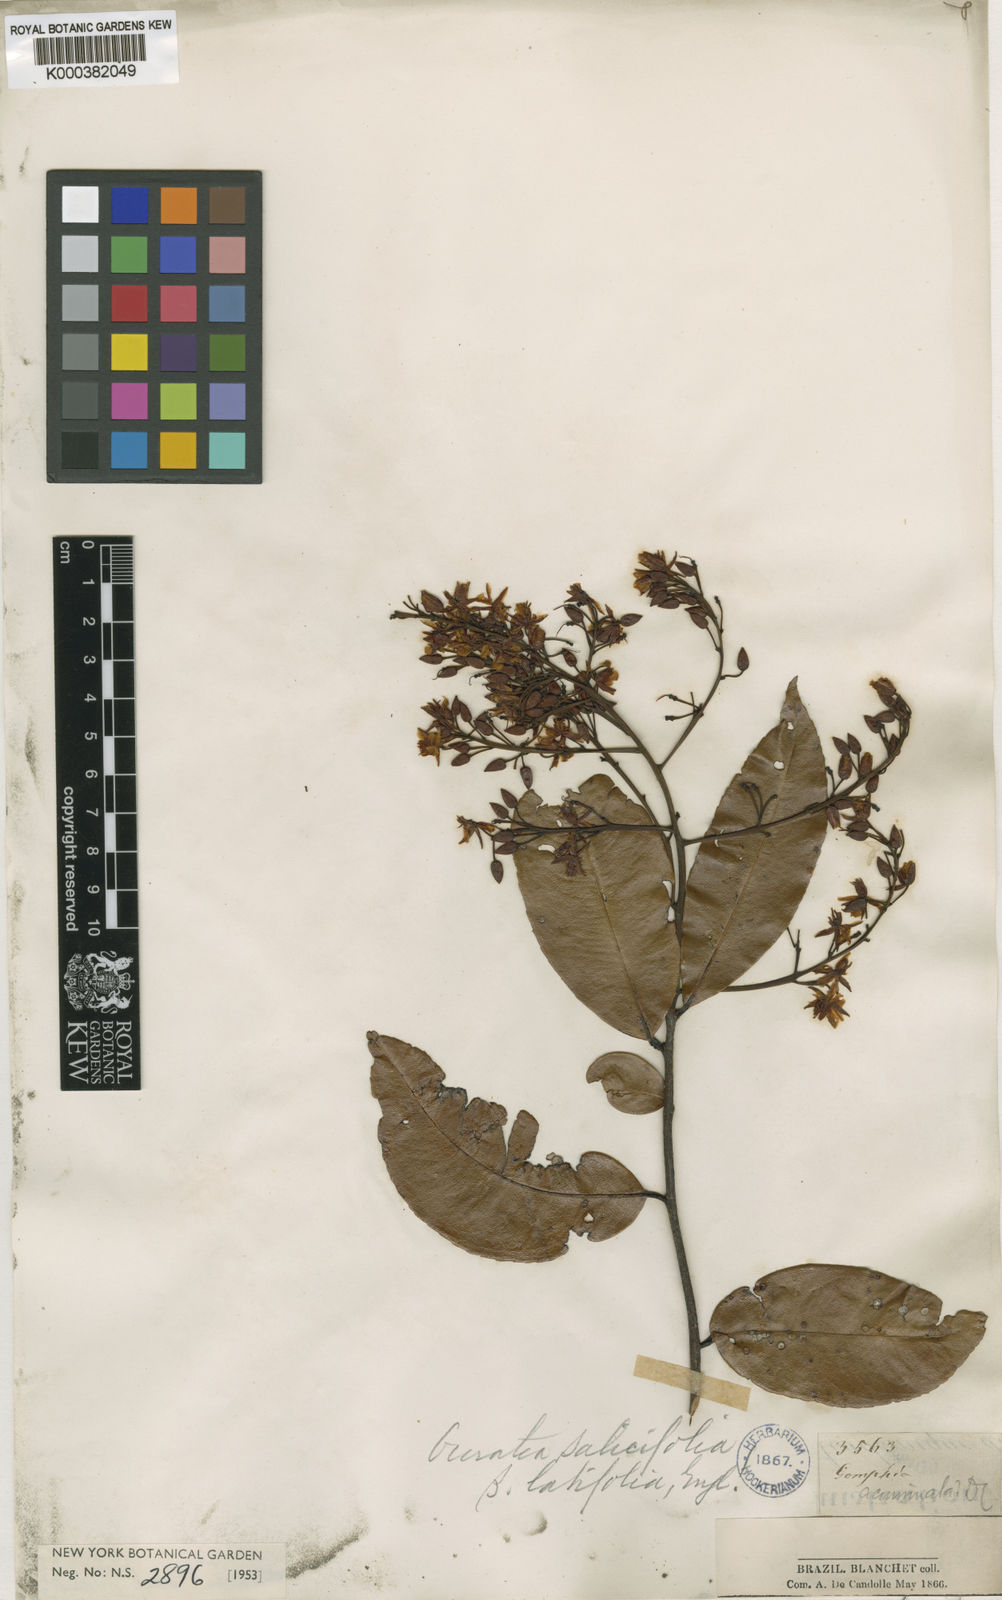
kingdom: Plantae
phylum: Tracheophyta
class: Magnoliopsida
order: Malpighiales
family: Ochnaceae
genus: Ouratea
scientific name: Ouratea
